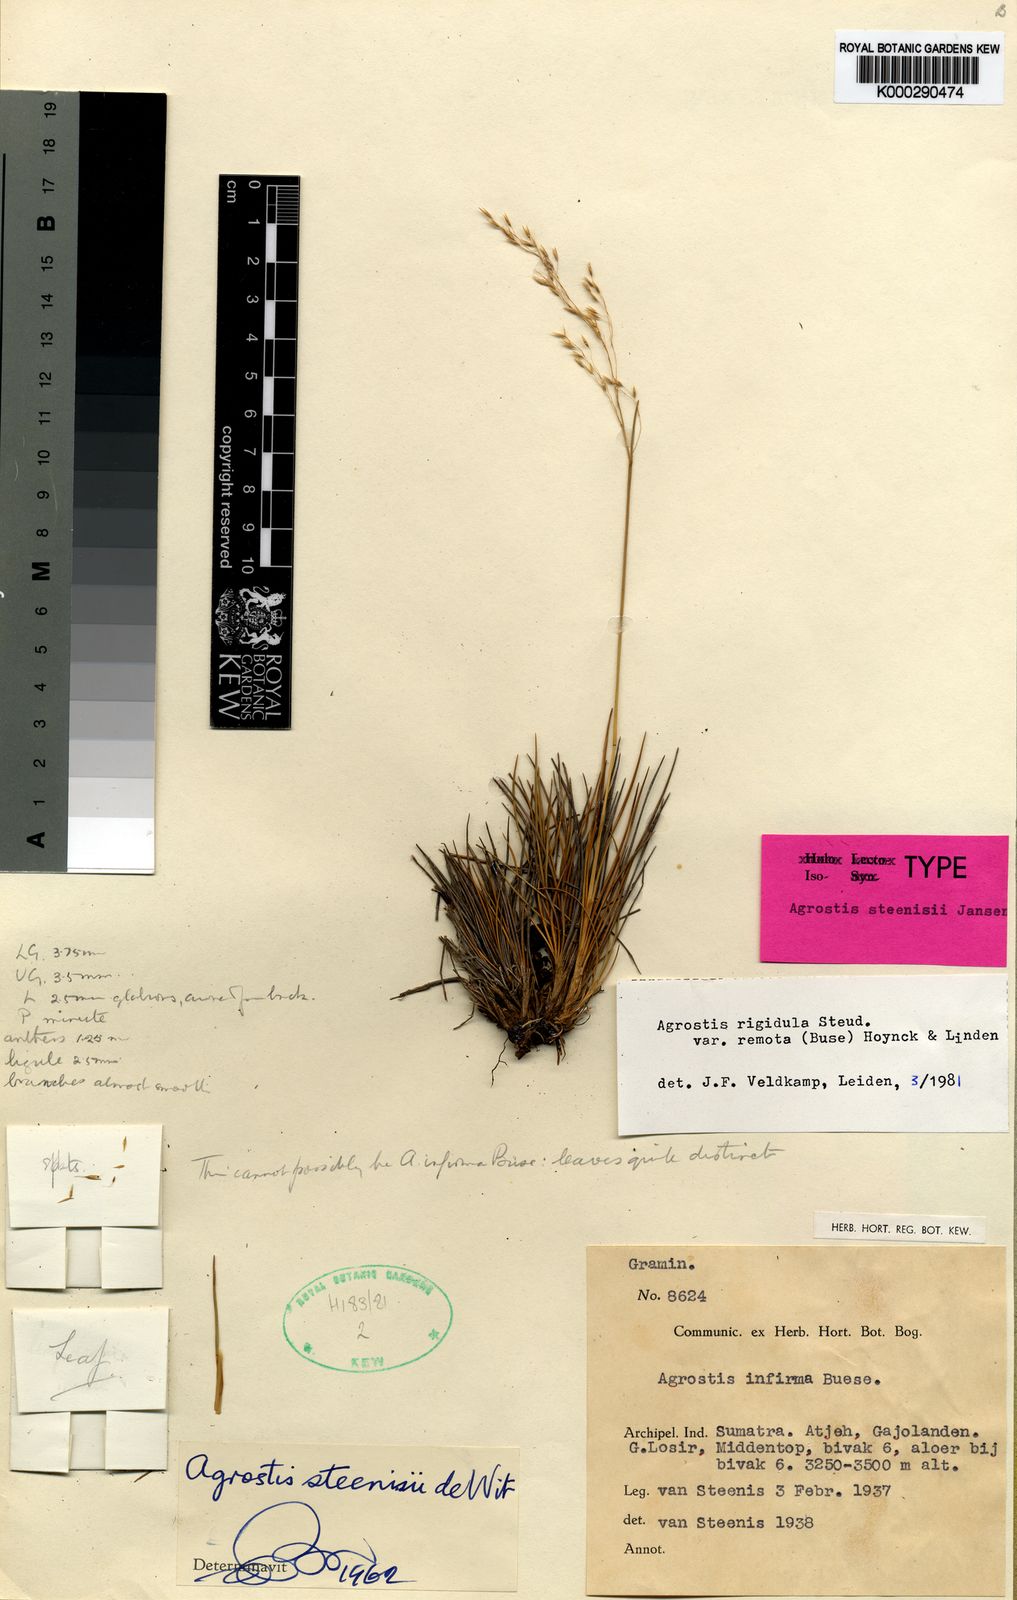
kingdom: Plantae
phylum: Tracheophyta
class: Liliopsida
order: Poales
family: Poaceae
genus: Agrostis
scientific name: Agrostis infirma
